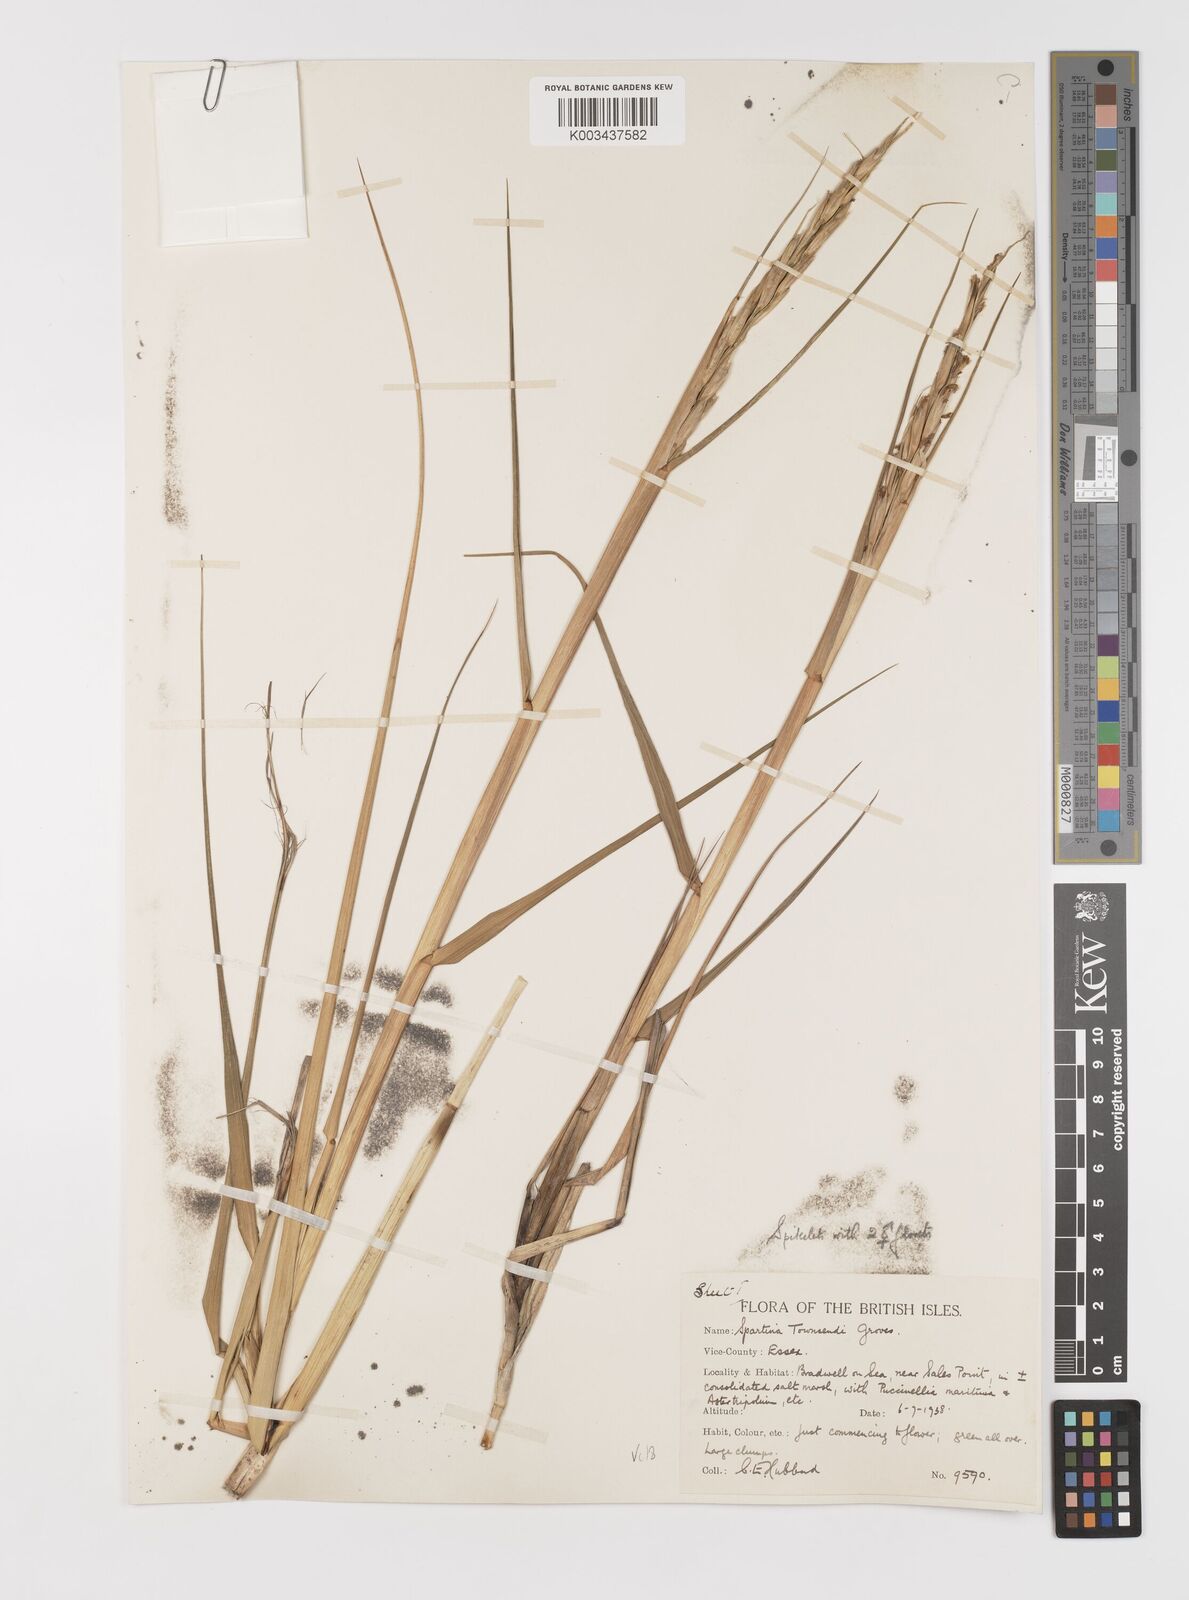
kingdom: Plantae
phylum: Tracheophyta
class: Liliopsida
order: Poales
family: Poaceae
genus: Sporobolus
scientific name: Sporobolus anglicus
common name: English cordgrass
